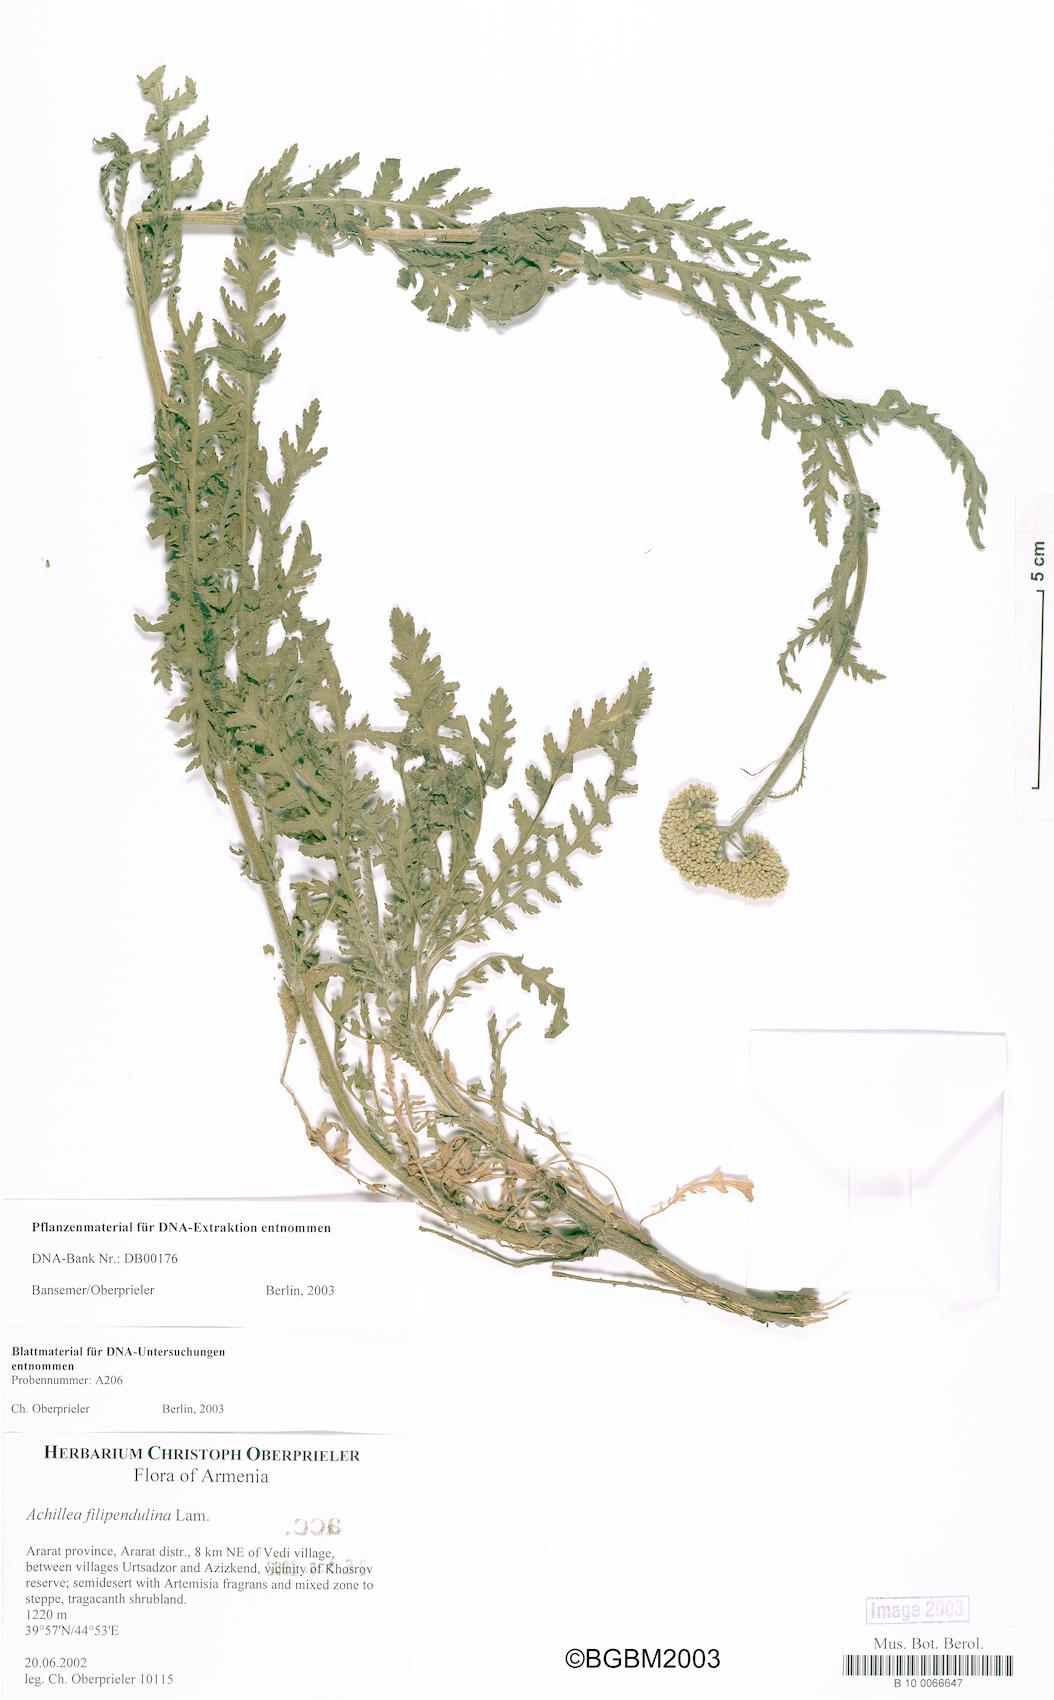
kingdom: Plantae
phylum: Tracheophyta
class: Magnoliopsida
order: Asterales
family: Asteraceae
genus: Achillea
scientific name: Achillea filipendulina
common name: Fernleaf yarrow
